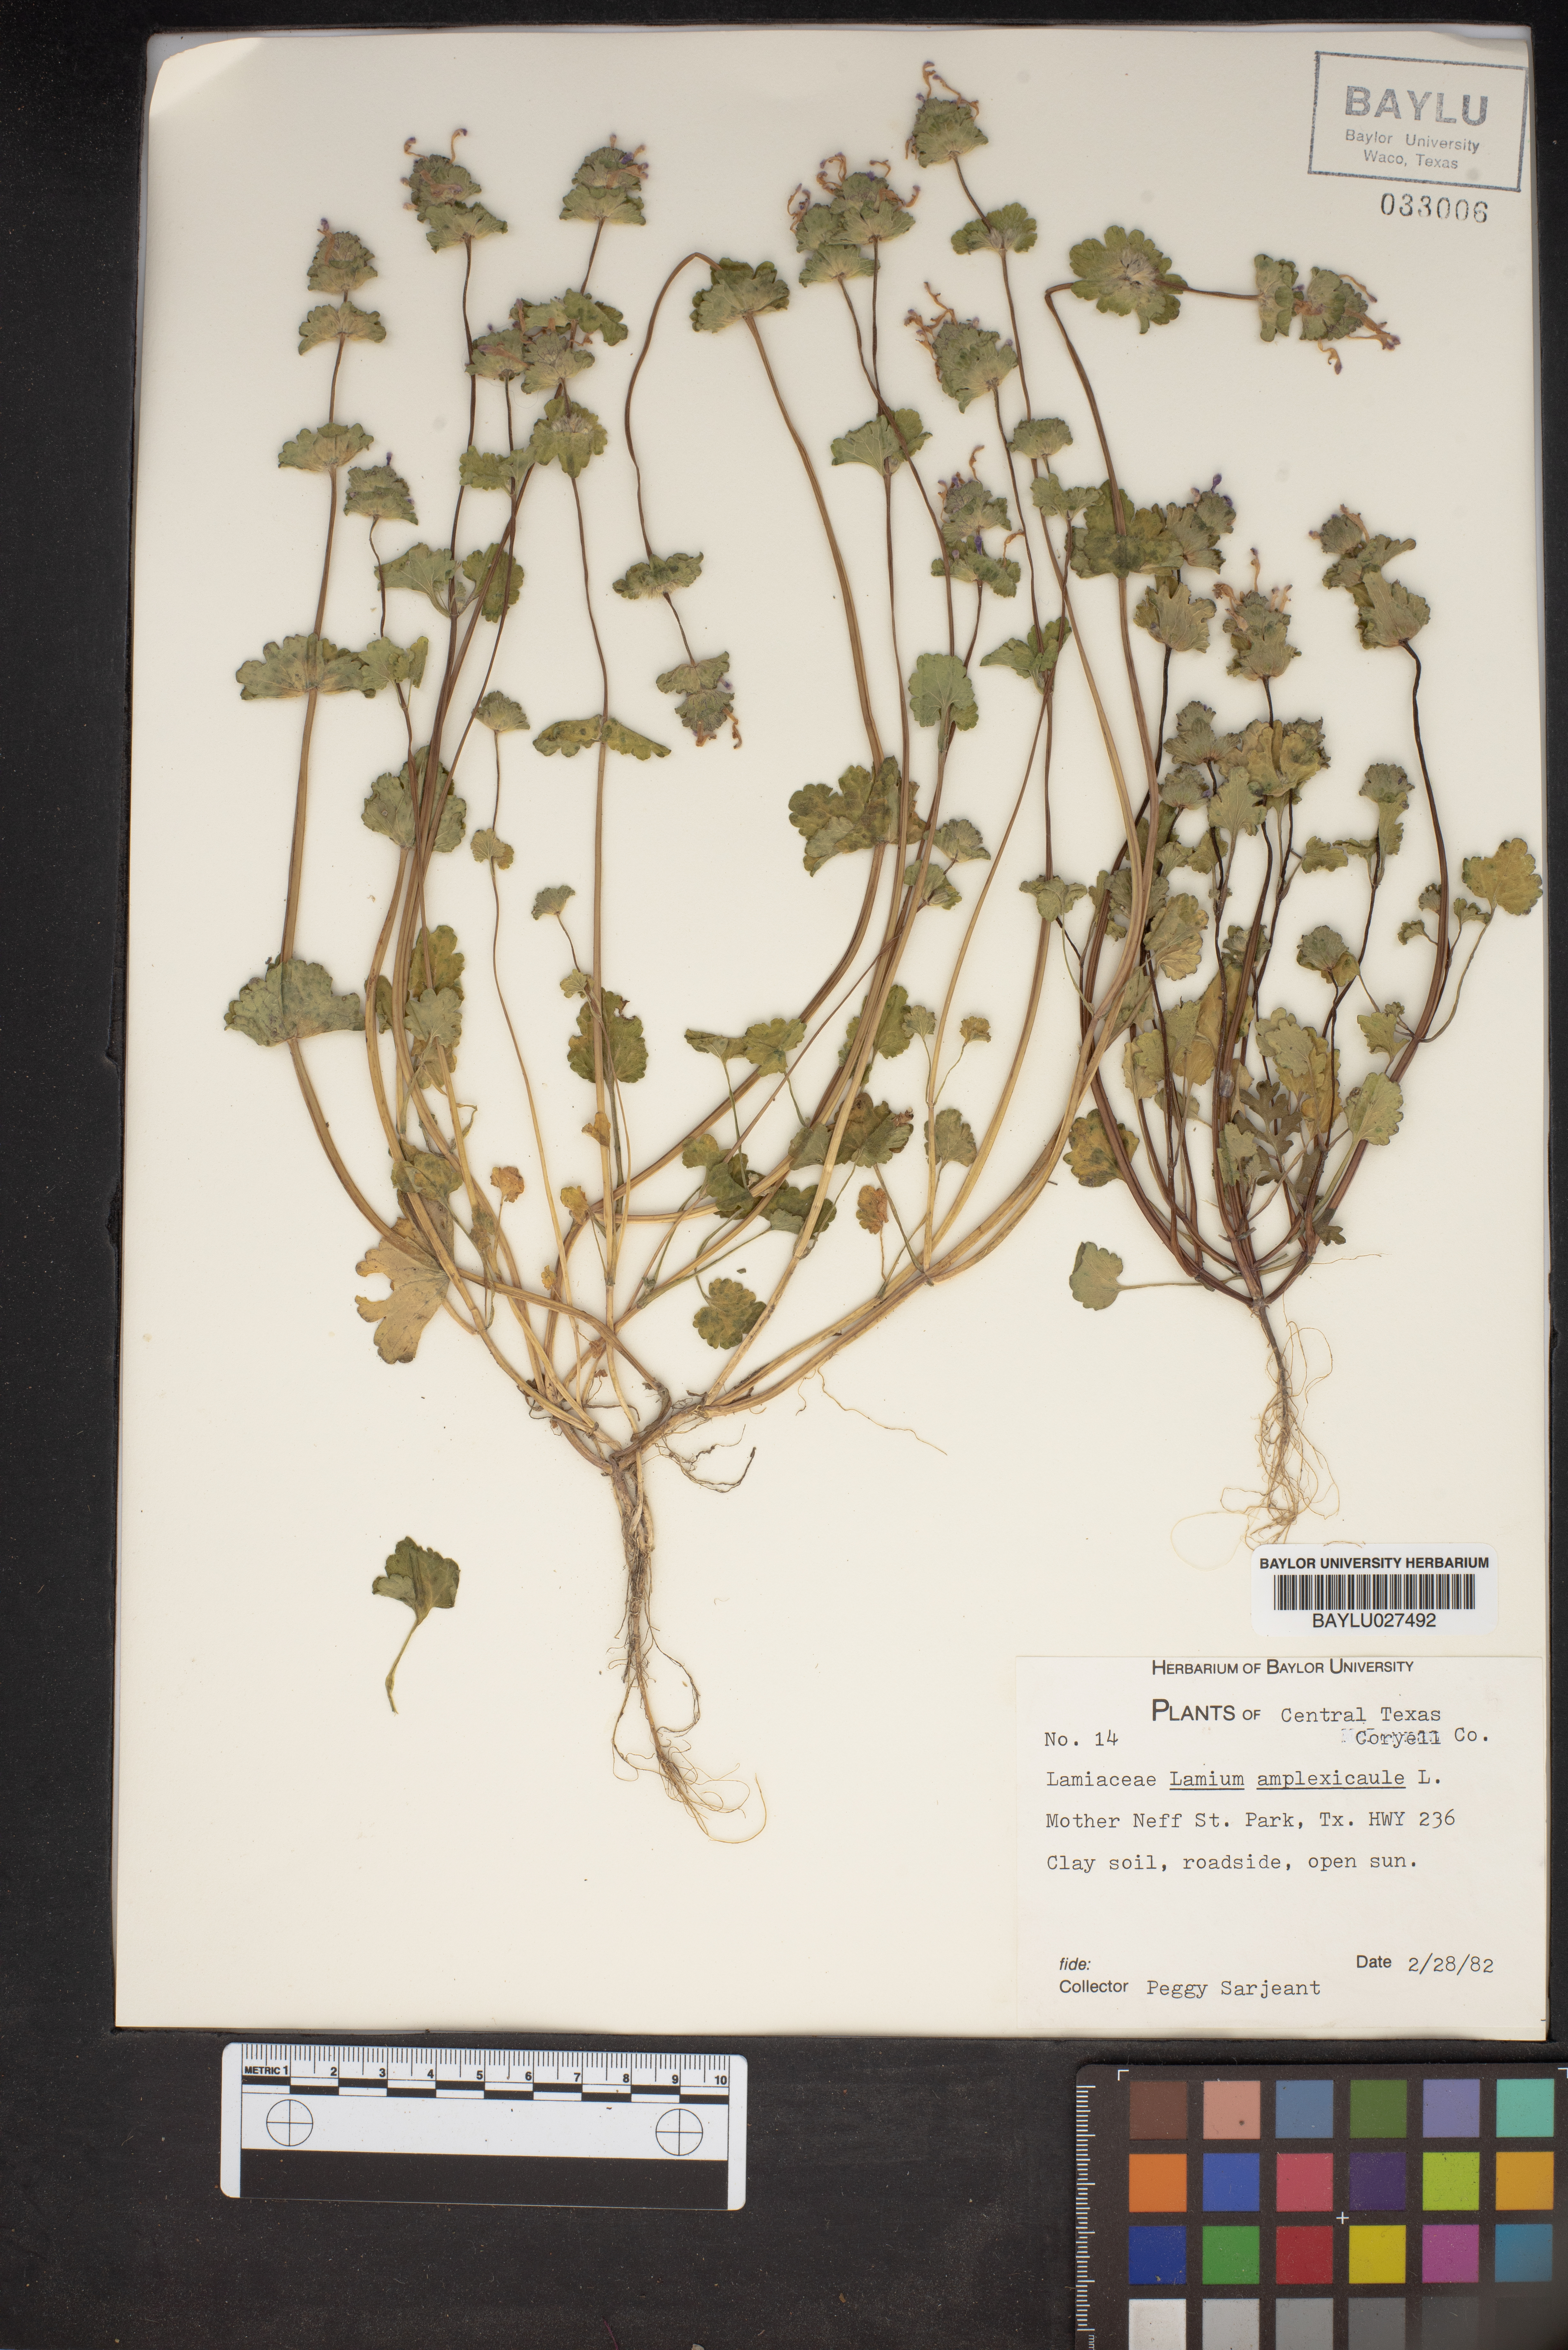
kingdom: Plantae
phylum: Tracheophyta
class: Magnoliopsida
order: Lamiales
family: Lamiaceae
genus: Lamium
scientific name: Lamium amplexicaule
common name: Henbit dead-nettle
